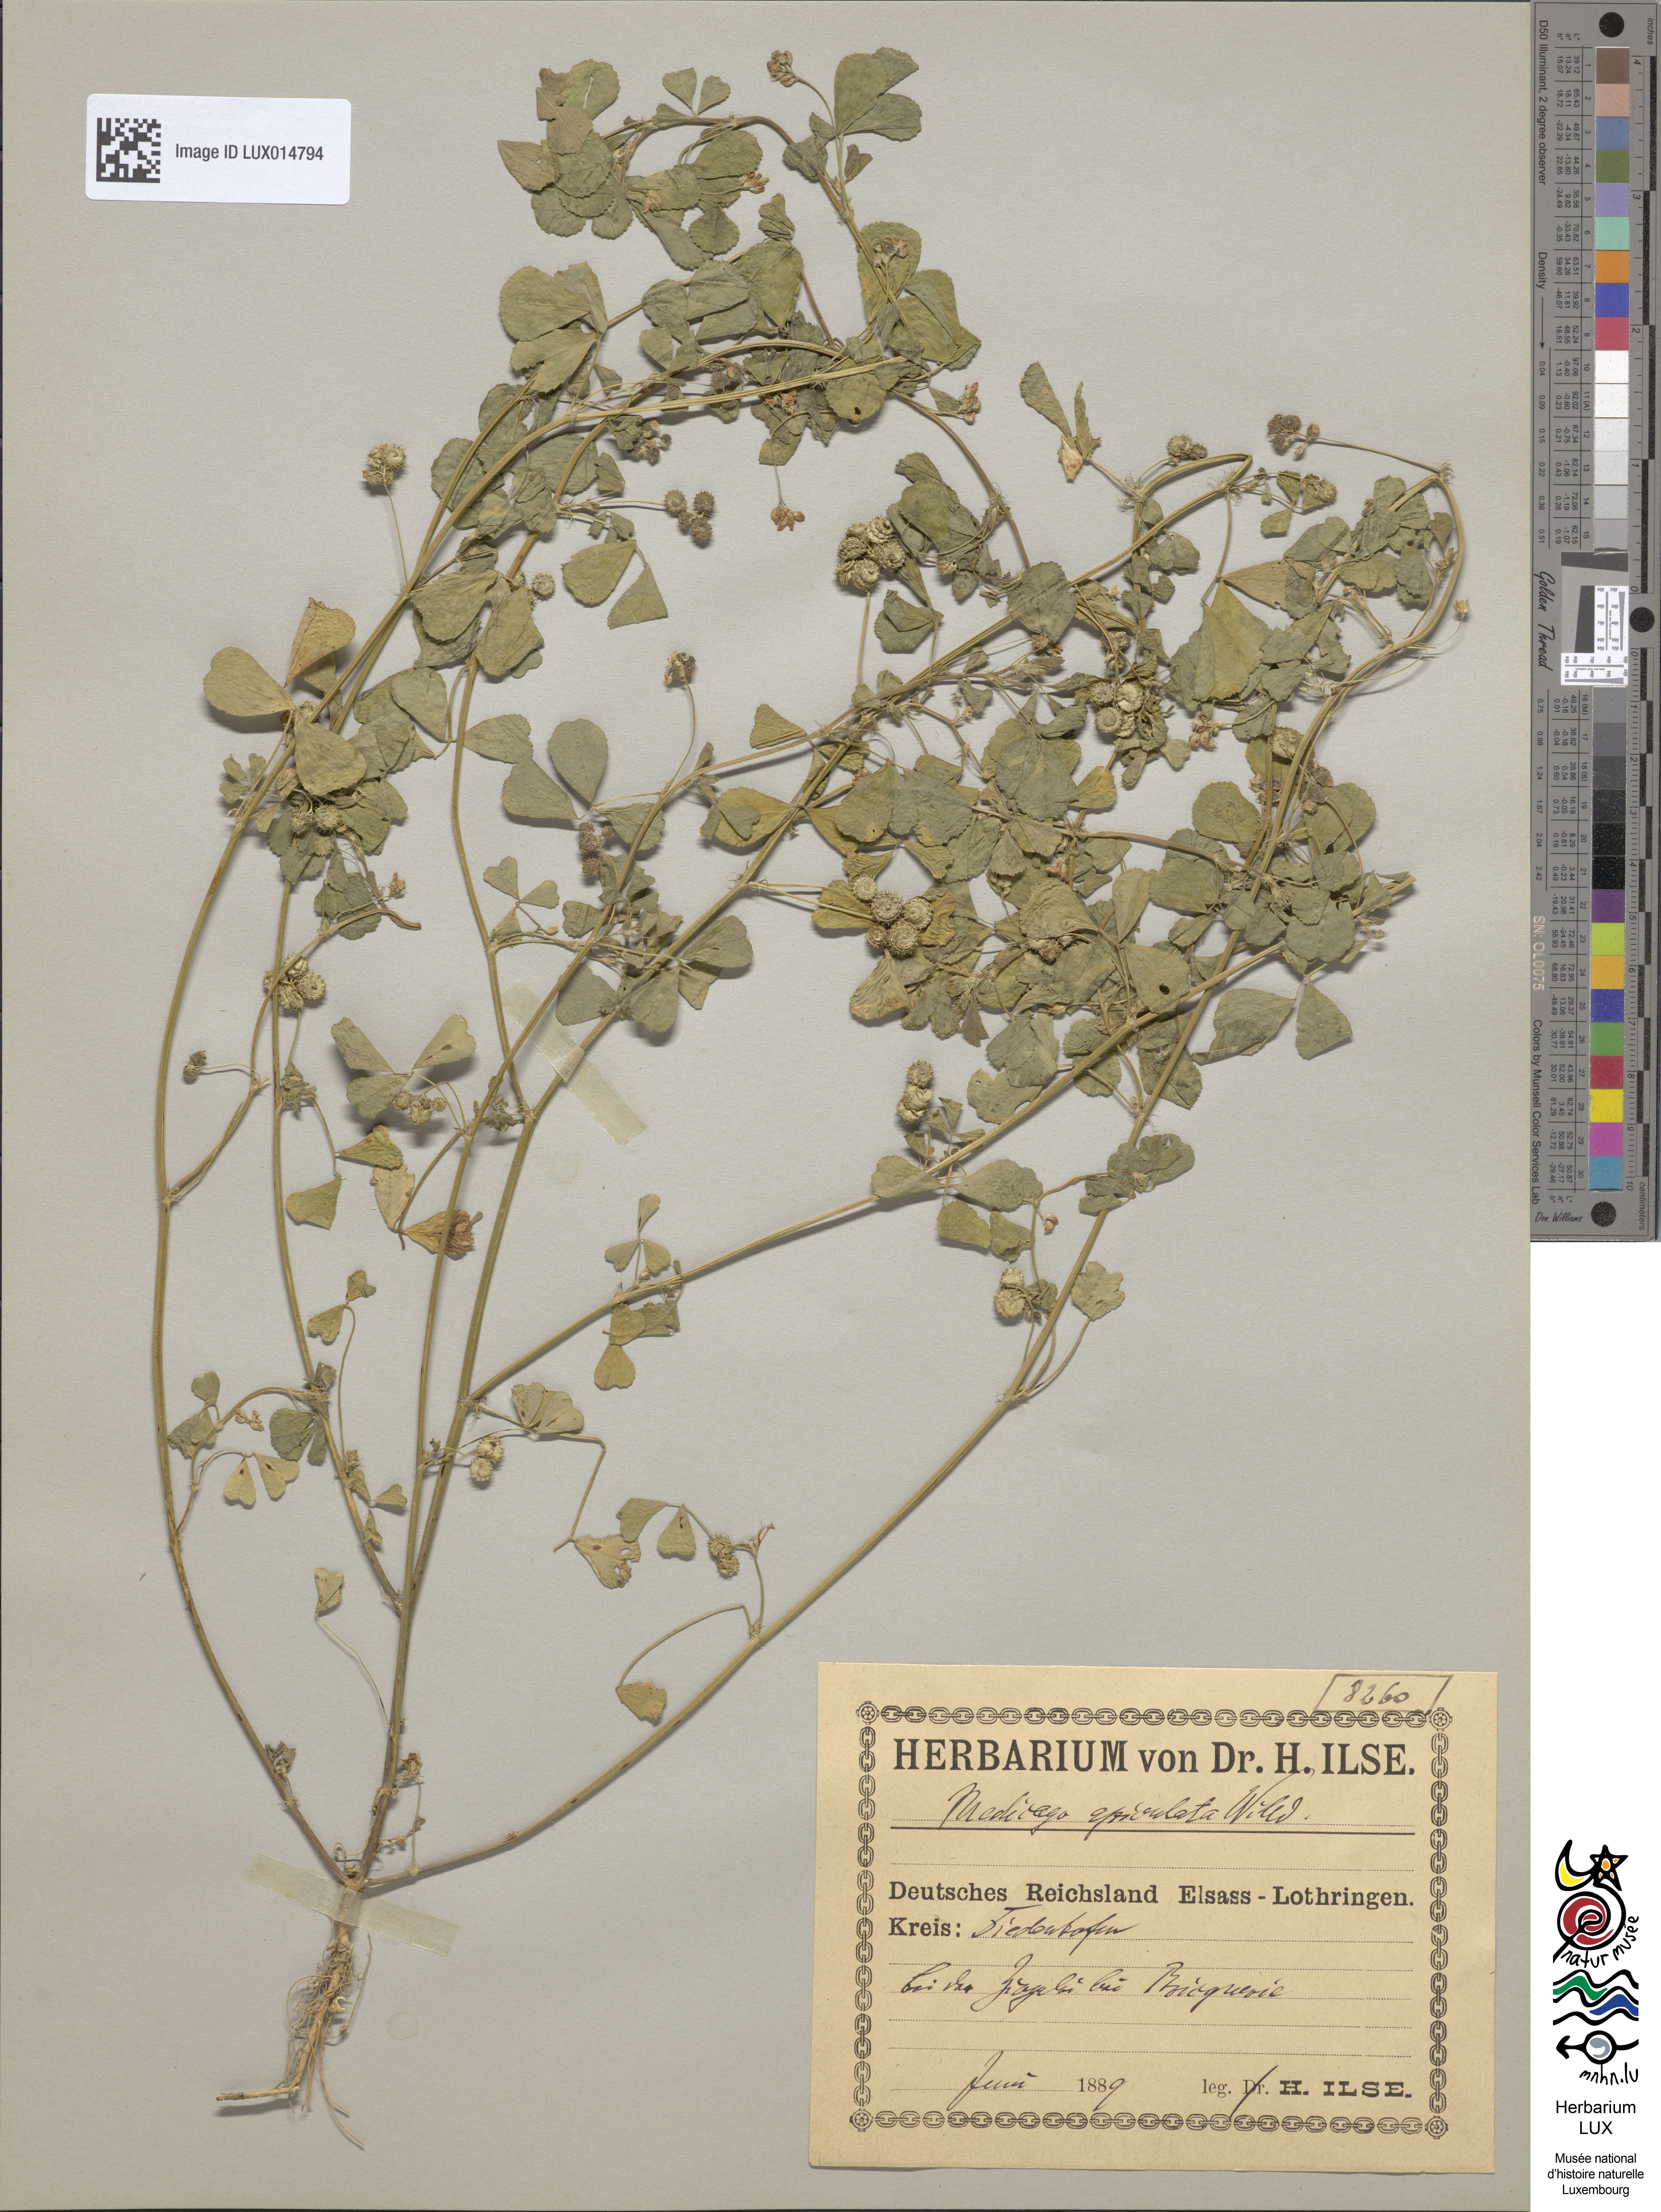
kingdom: Plantae
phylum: Tracheophyta
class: Magnoliopsida
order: Fabales
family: Fabaceae
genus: Medicago
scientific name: Medicago polymorpha
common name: Burclover
